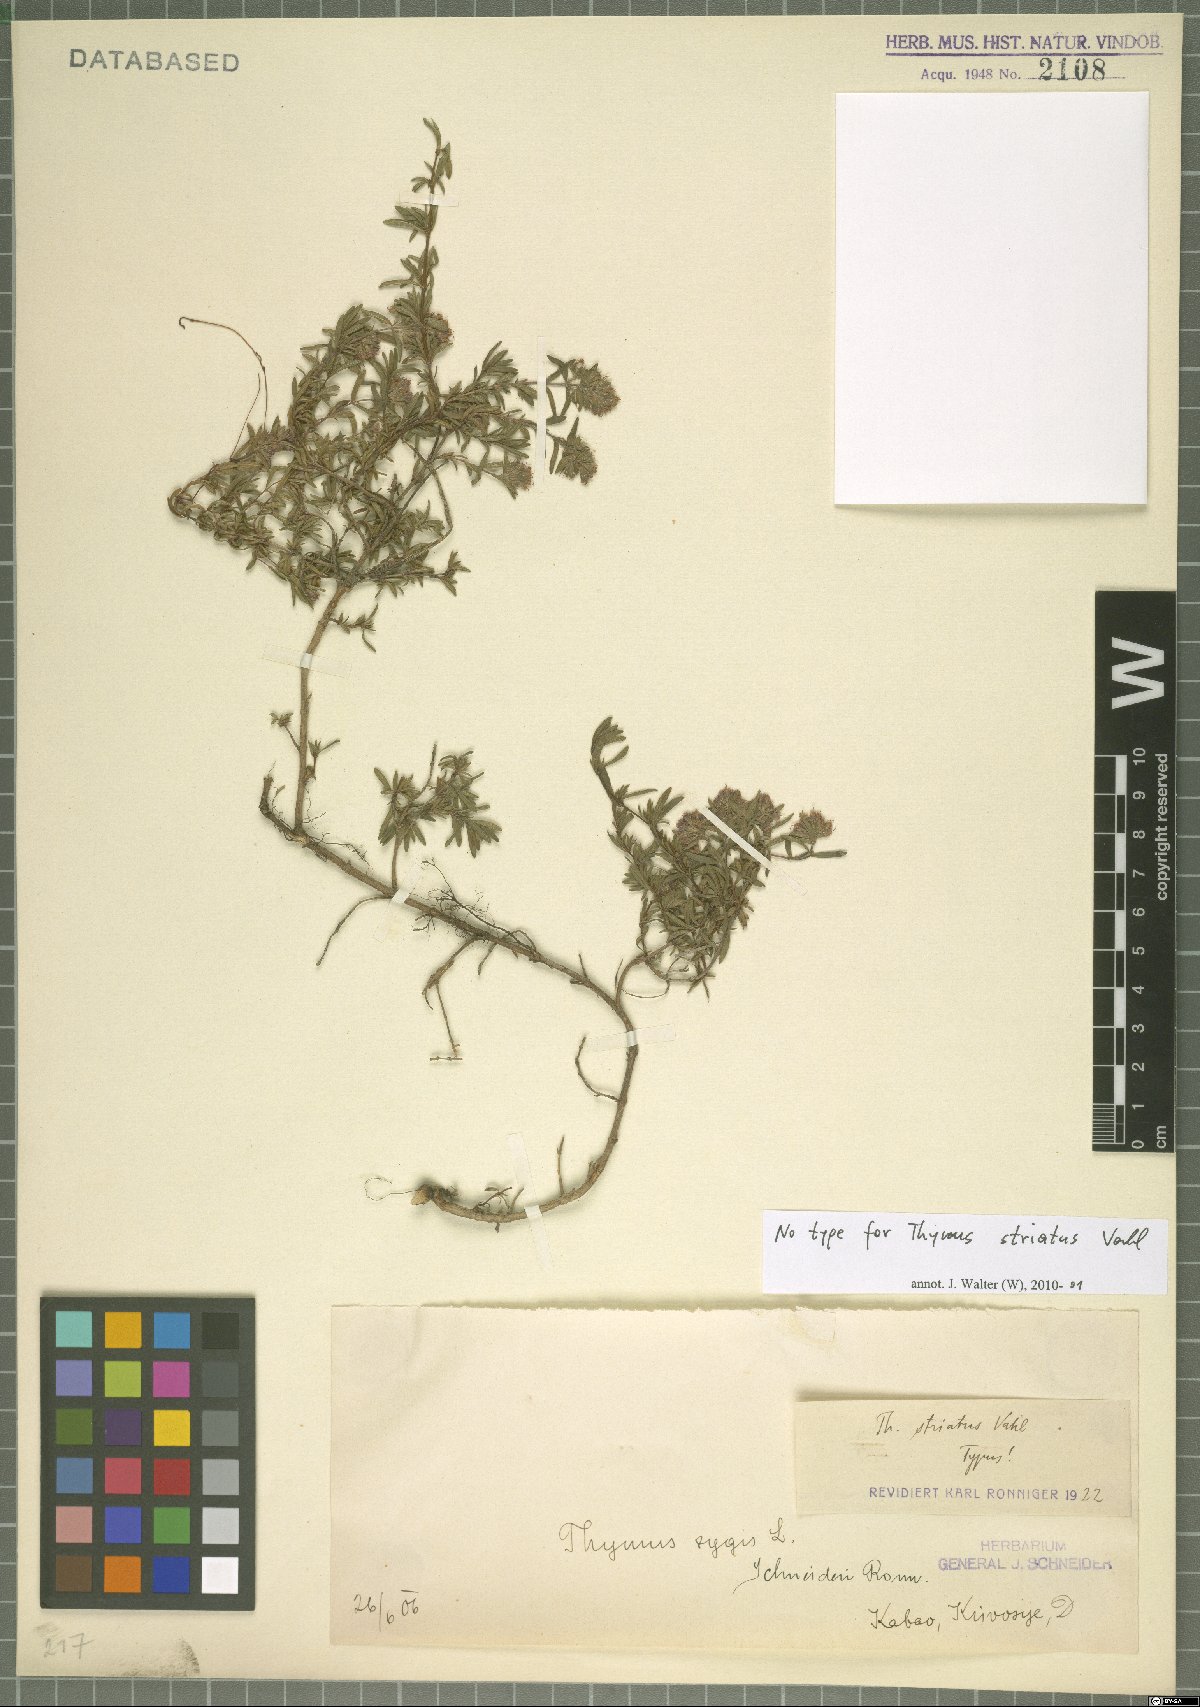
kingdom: Plantae
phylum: Tracheophyta
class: Magnoliopsida
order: Lamiales
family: Lamiaceae
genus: Thymus
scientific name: Thymus striatus
